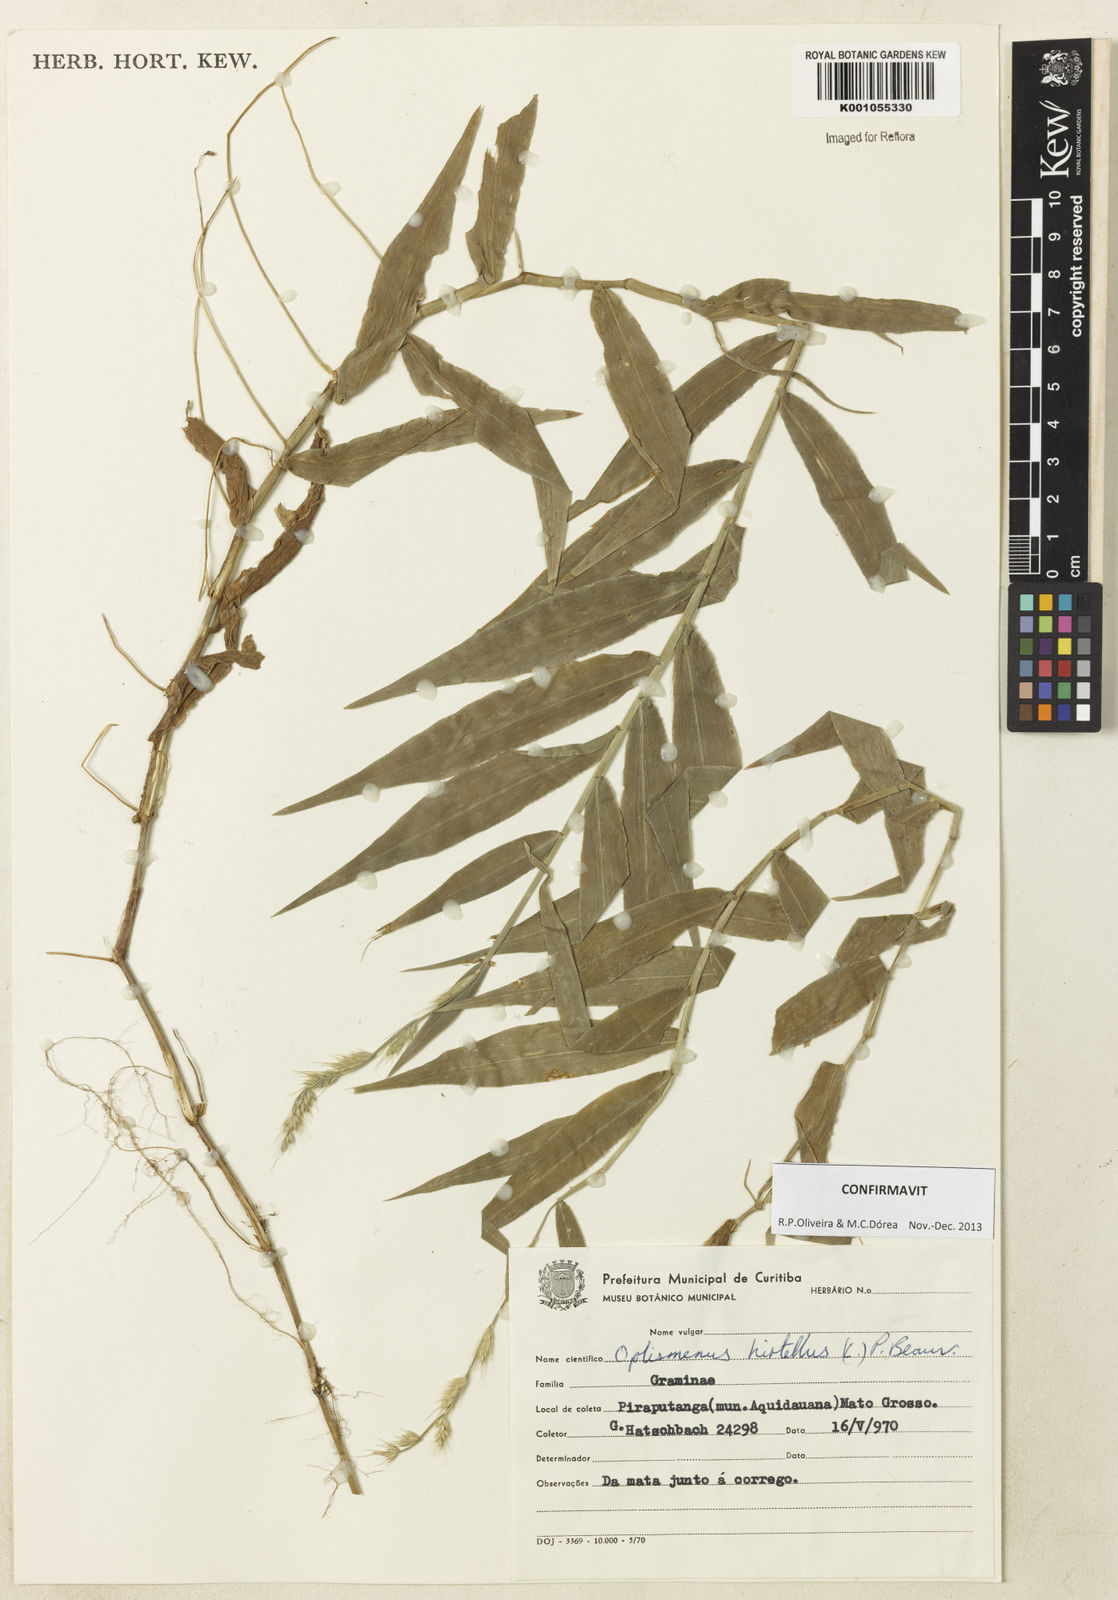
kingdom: Plantae
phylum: Tracheophyta
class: Liliopsida
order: Poales
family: Poaceae
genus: Oplismenus
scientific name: Oplismenus hirtellus
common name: Basketgrass
